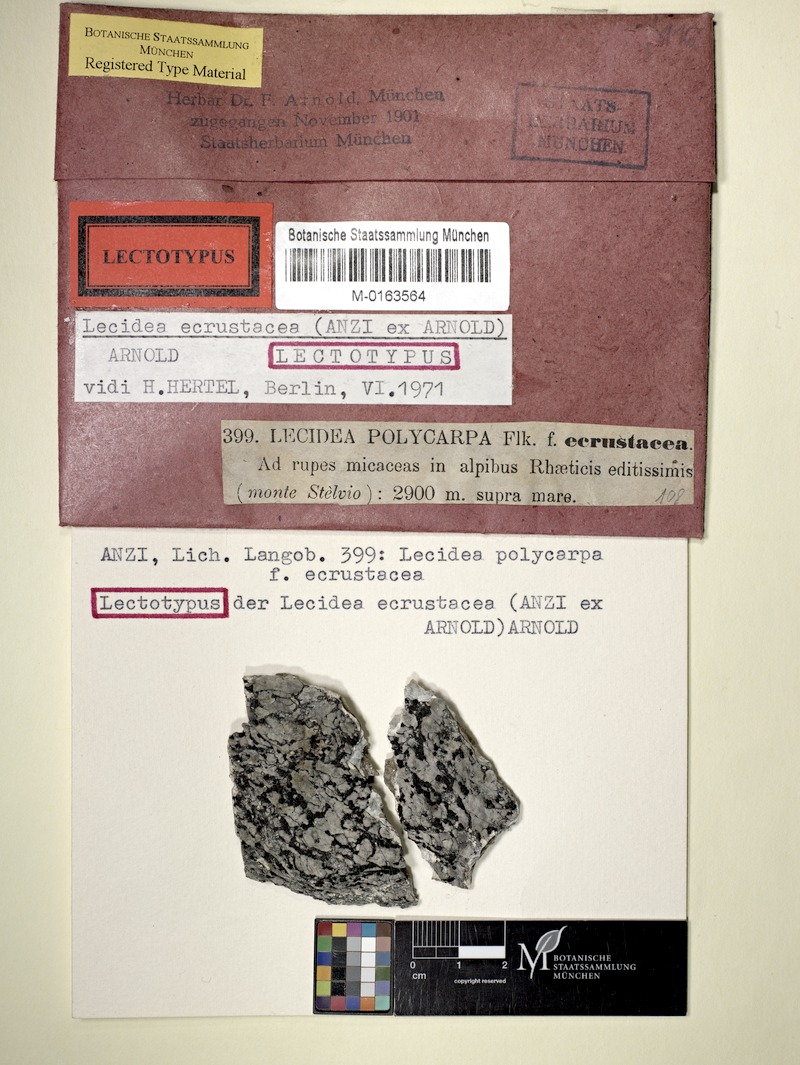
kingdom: Fungi
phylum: Ascomycota
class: Lecanoromycetes
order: Lecideales
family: Lecideaceae
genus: Lecidea
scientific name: Lecidea ecrustacea
